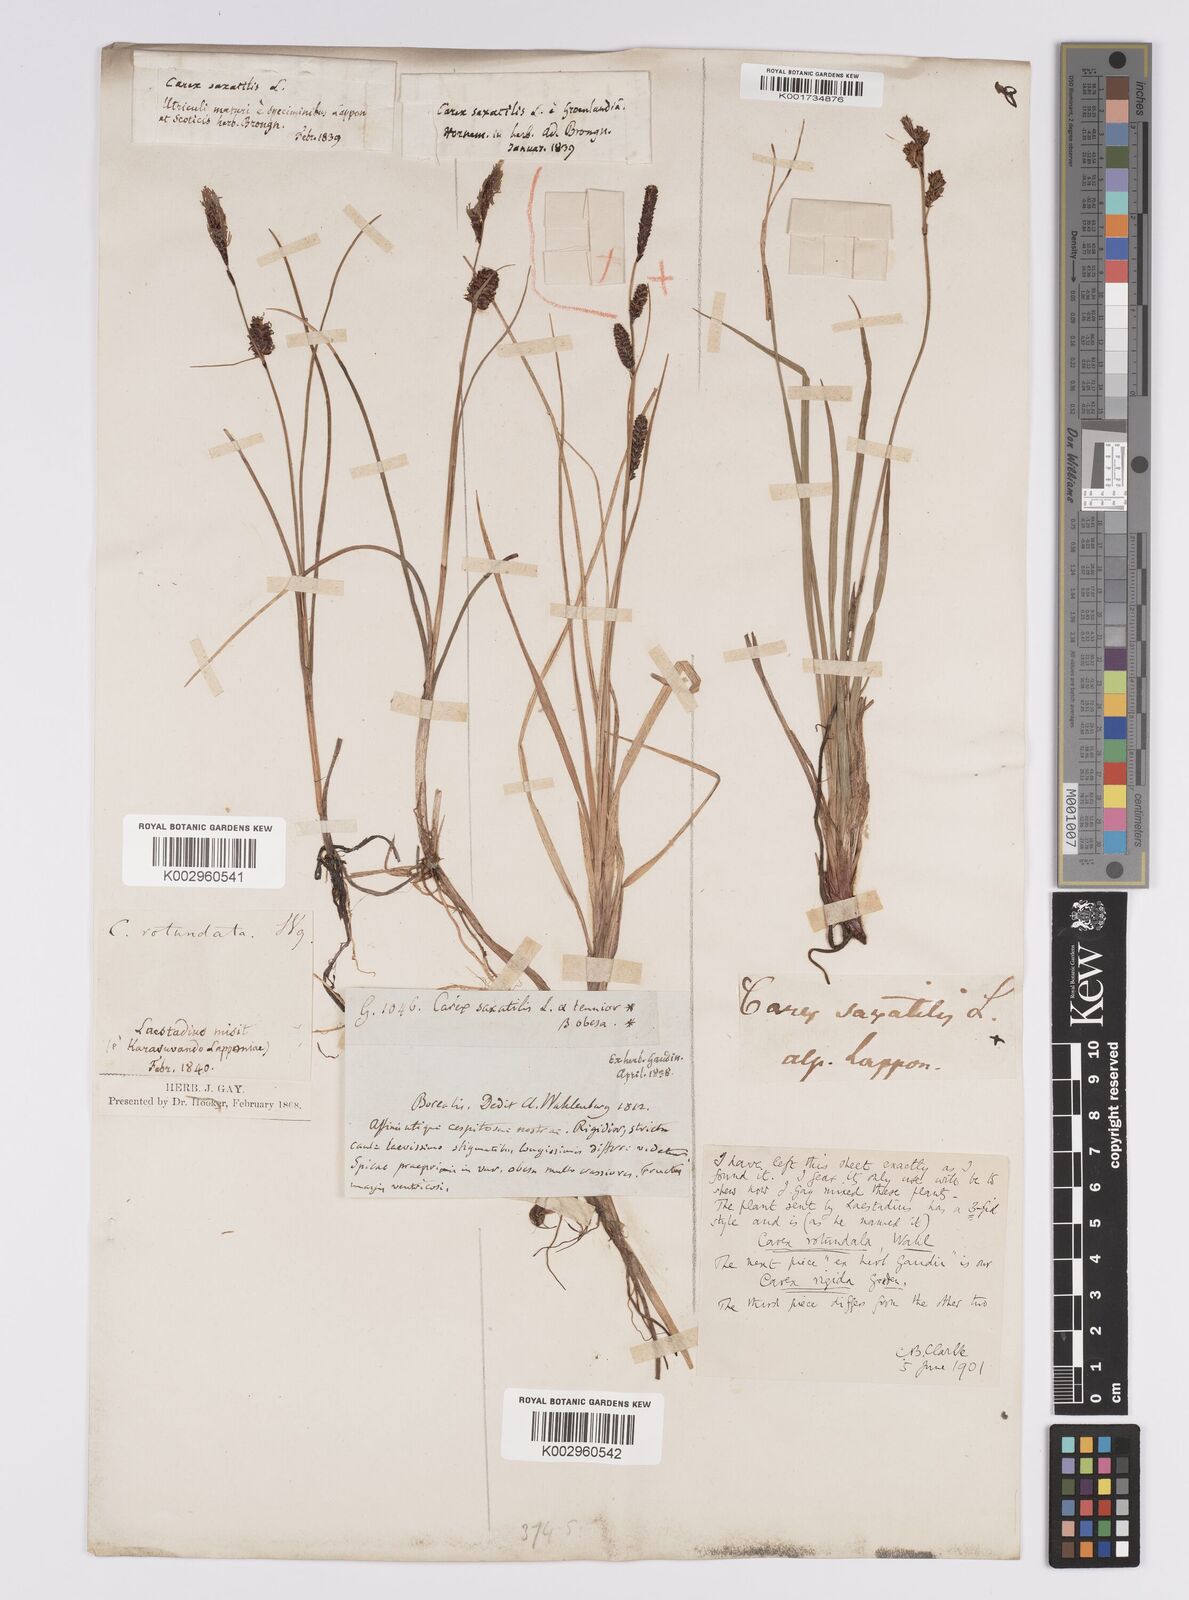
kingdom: Plantae
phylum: Tracheophyta
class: Liliopsida
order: Poales
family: Cyperaceae
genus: Carex
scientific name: Carex saxatilis
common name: Russet sedge
